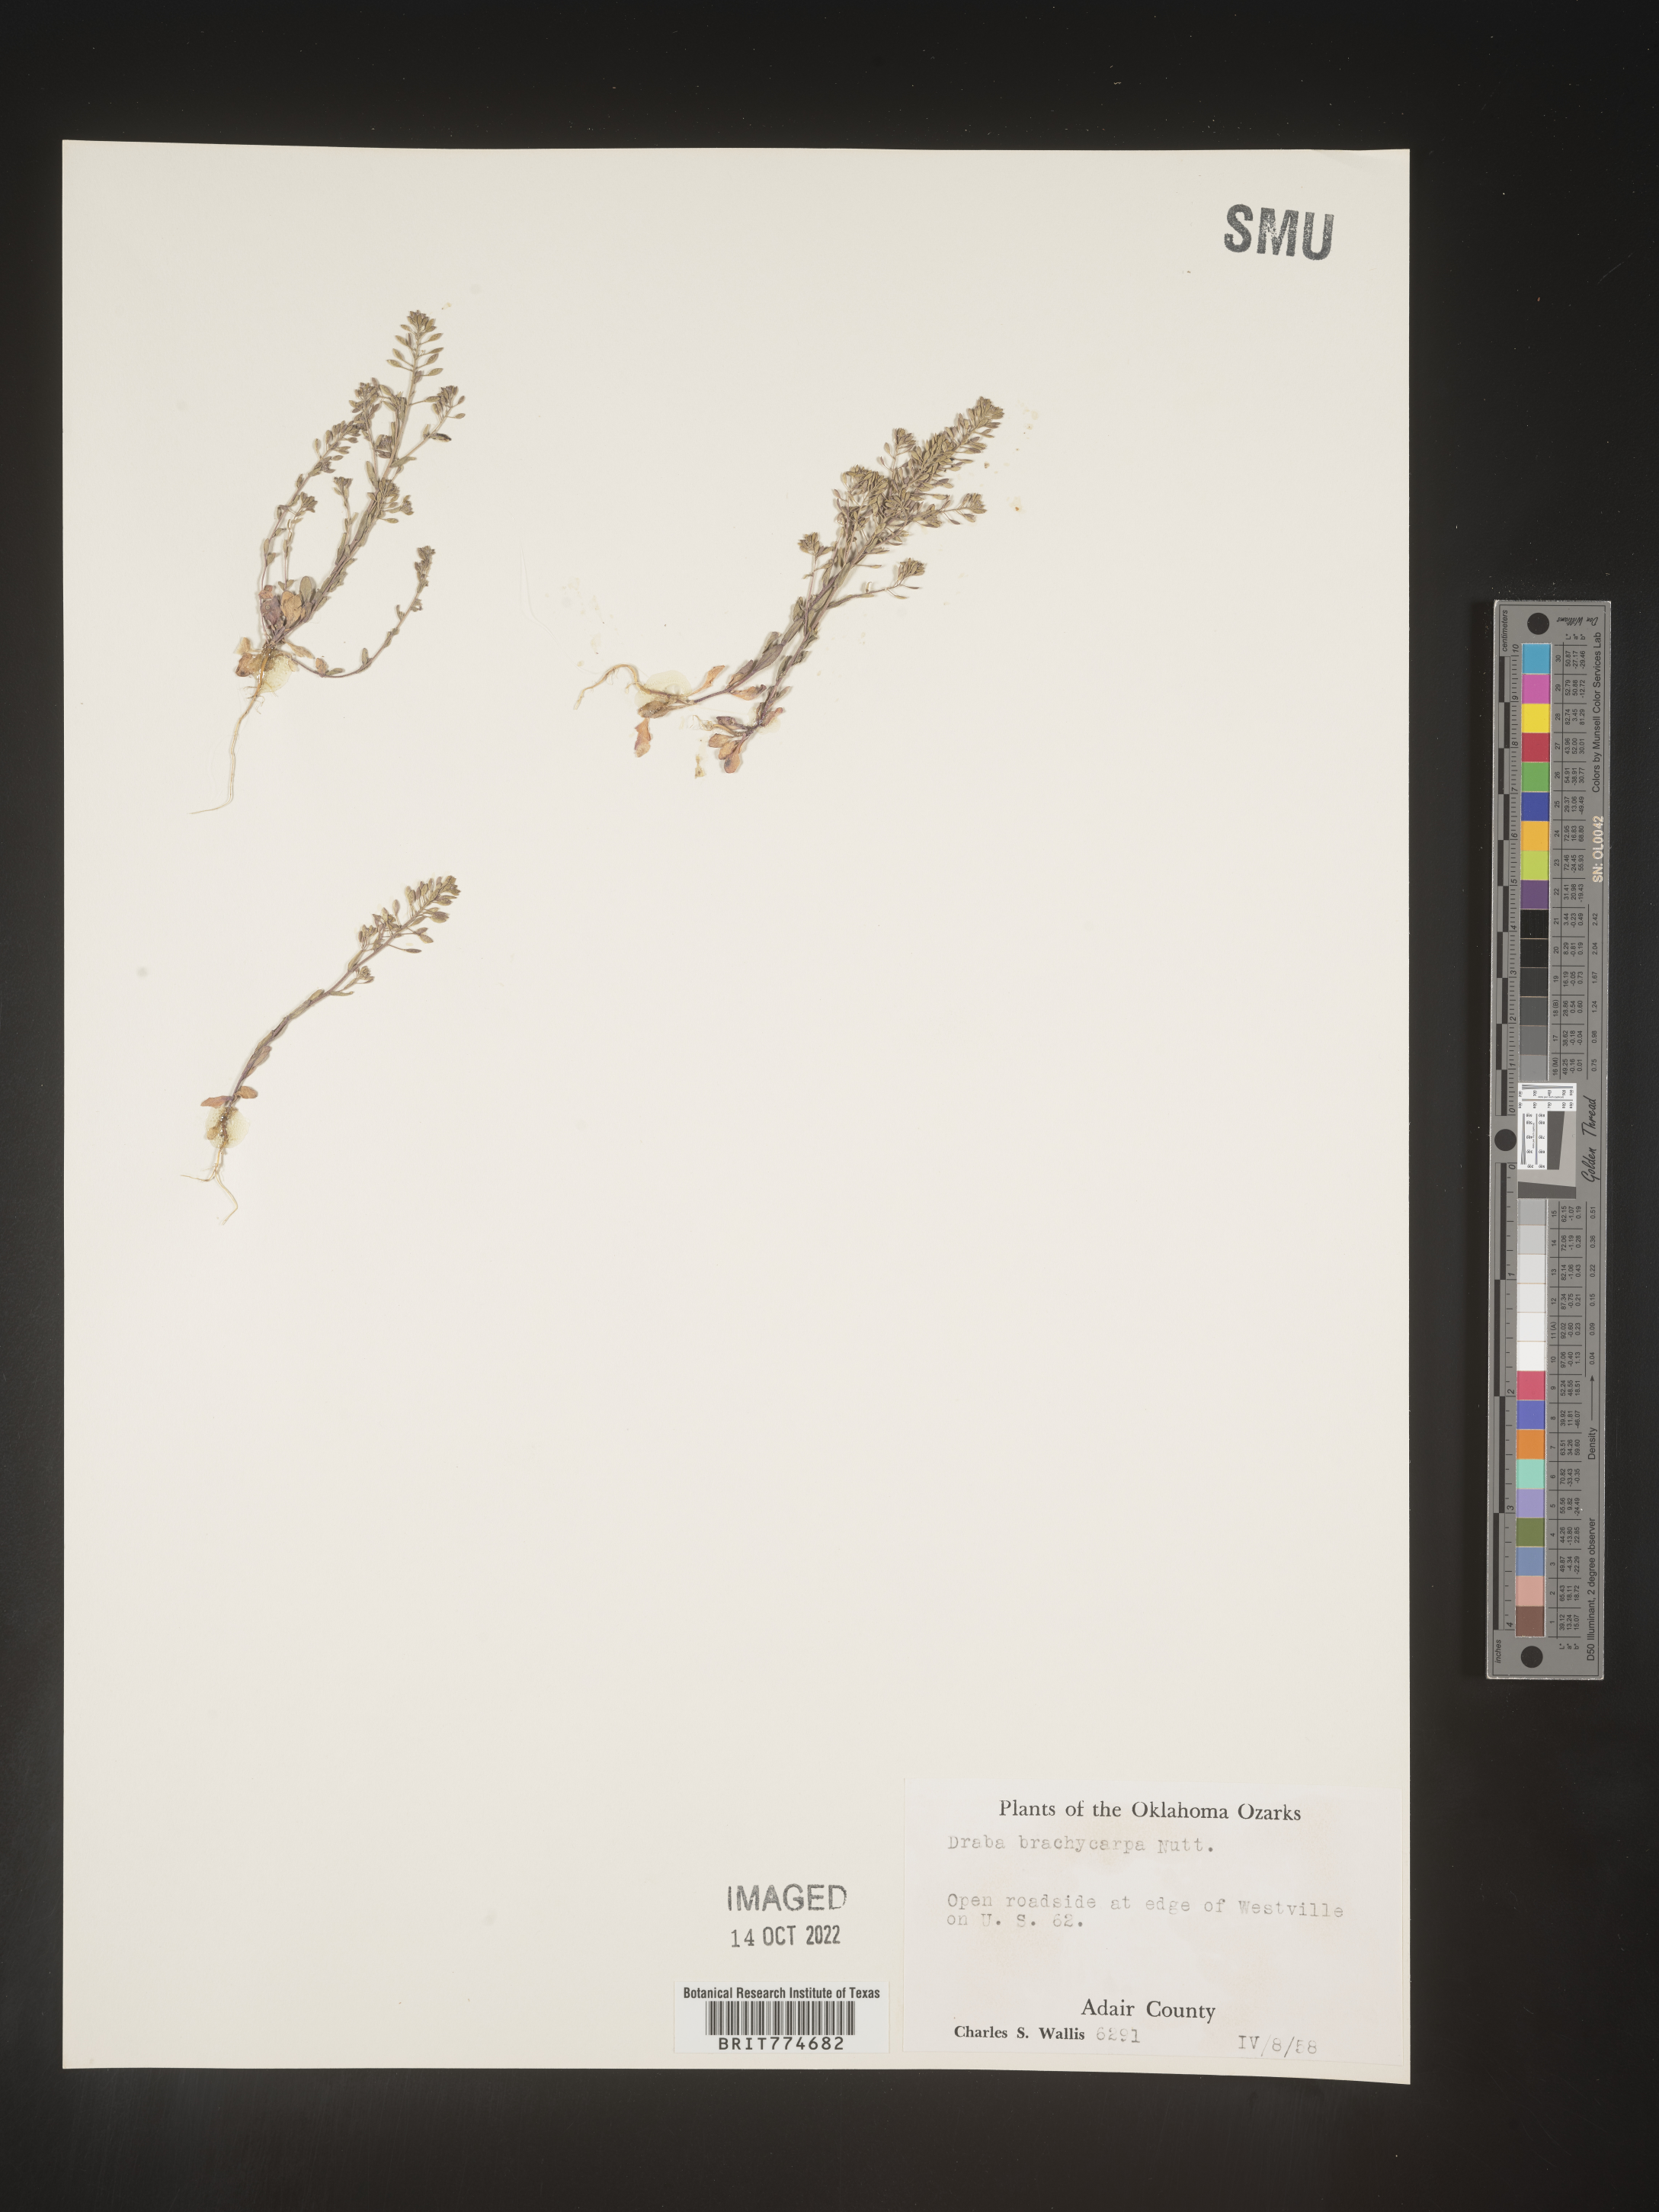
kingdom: Plantae
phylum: Tracheophyta
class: Magnoliopsida
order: Brassicales
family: Brassicaceae
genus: Abdra
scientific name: Abdra brachycarpa
